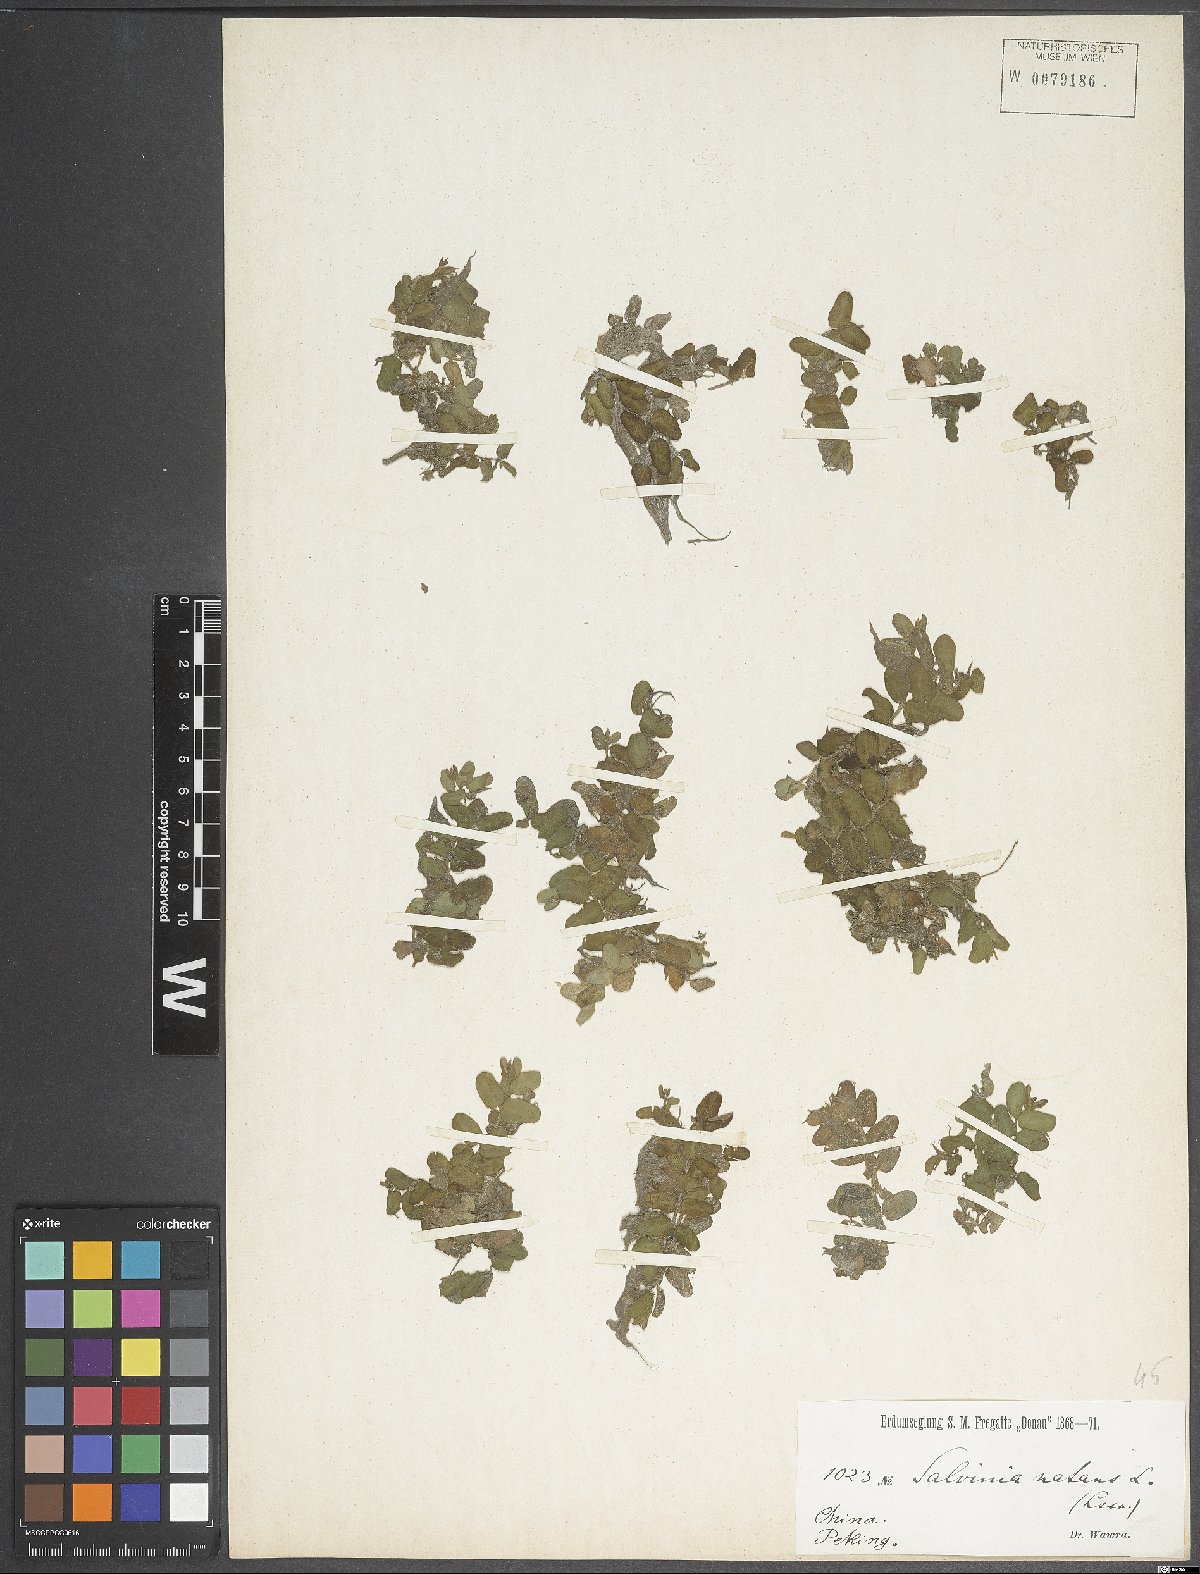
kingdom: Plantae
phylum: Tracheophyta
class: Polypodiopsida
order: Salviniales
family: Salviniaceae
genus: Salvinia
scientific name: Salvinia natans
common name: Floating fern
